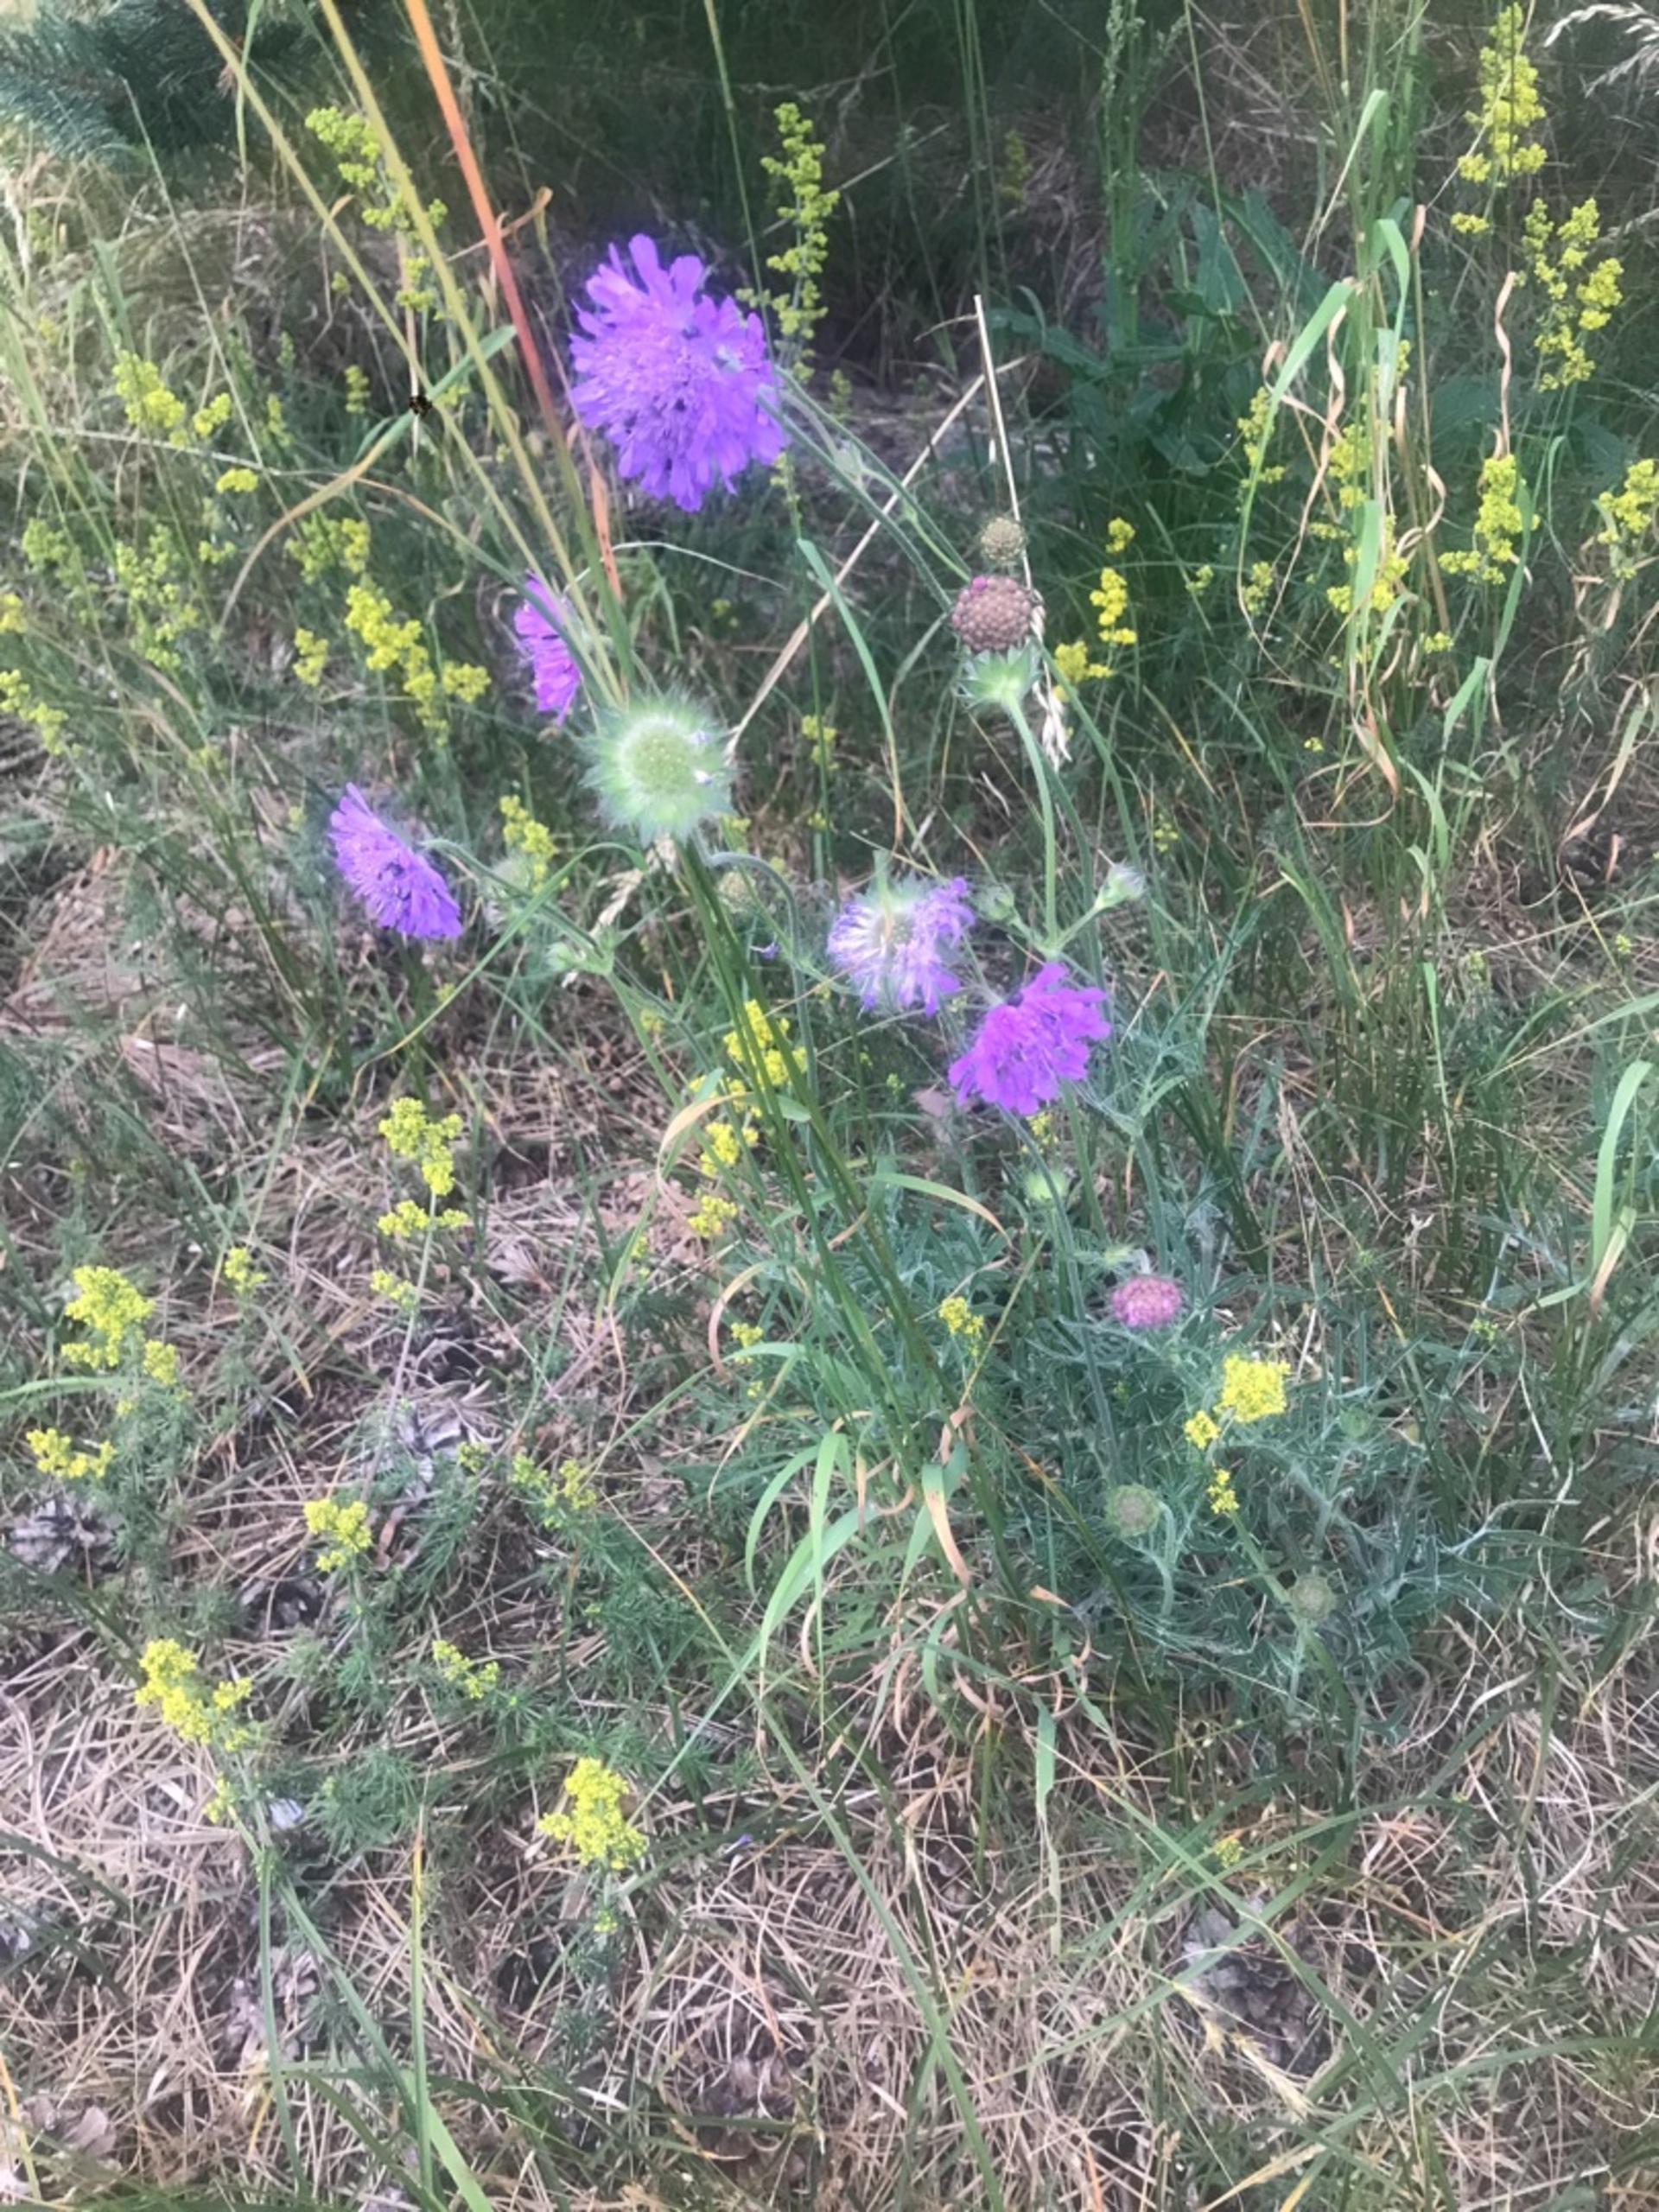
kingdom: Plantae
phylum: Tracheophyta
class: Magnoliopsida
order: Dipsacales
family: Caprifoliaceae
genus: Knautia
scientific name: Knautia arvensis
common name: Blåhat
